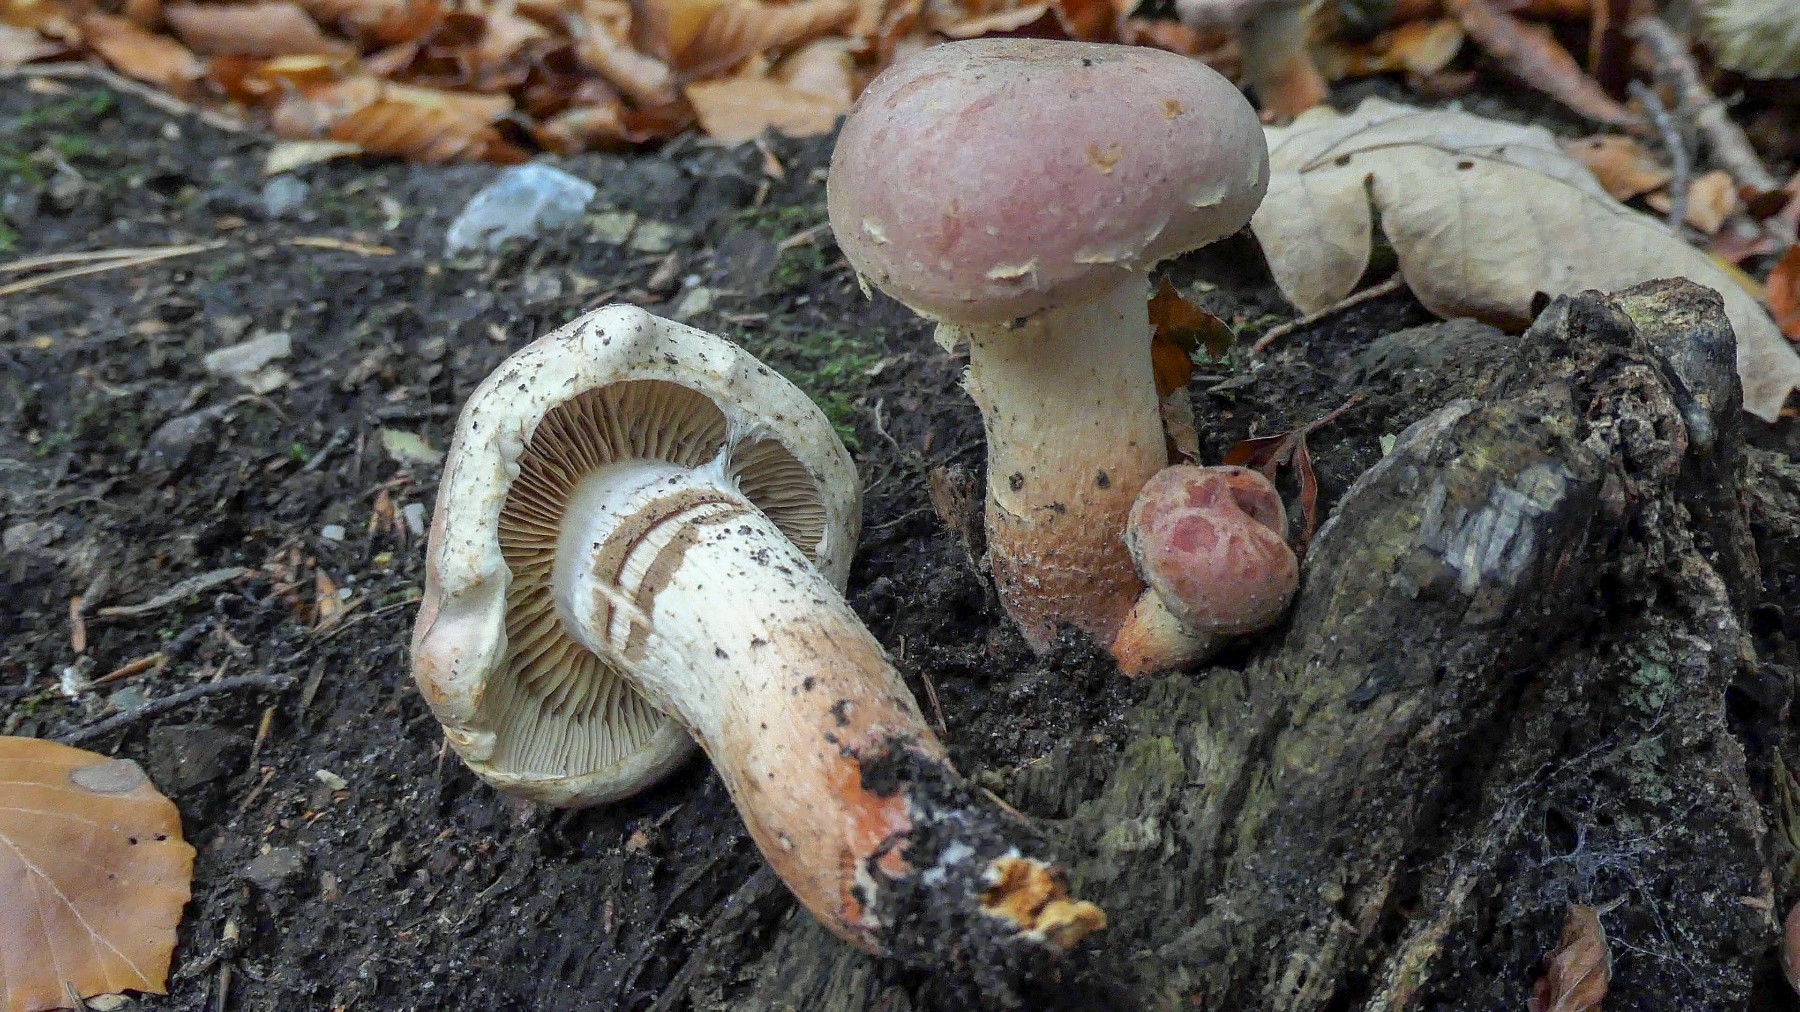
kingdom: Fungi
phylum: Basidiomycota
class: Agaricomycetes
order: Agaricales
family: Strophariaceae
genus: Hypholoma
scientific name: Hypholoma lateritium
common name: teglrød svovlhat
